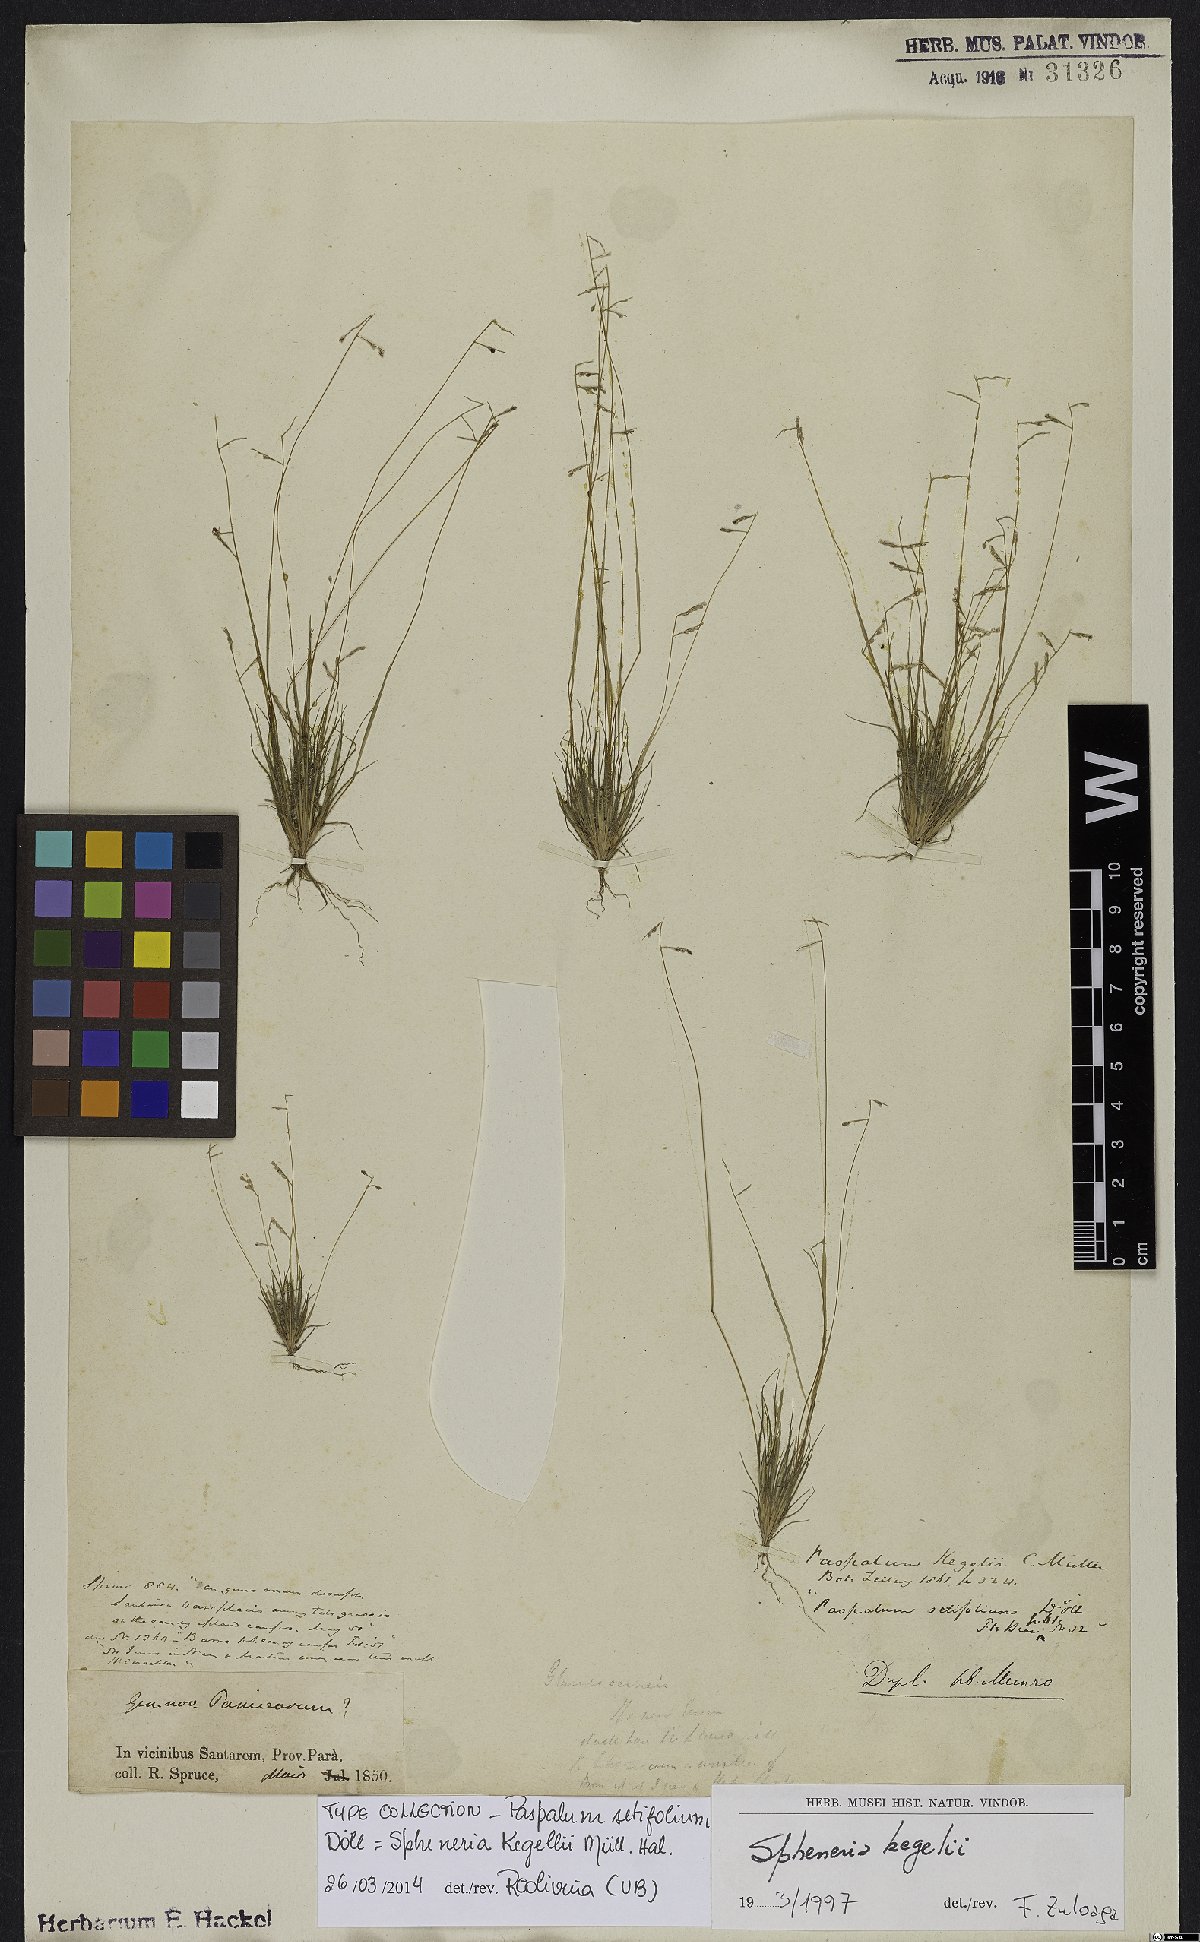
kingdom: Plantae
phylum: Tracheophyta
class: Liliopsida
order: Poales
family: Poaceae
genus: Spheneria
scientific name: Spheneria kegelii
